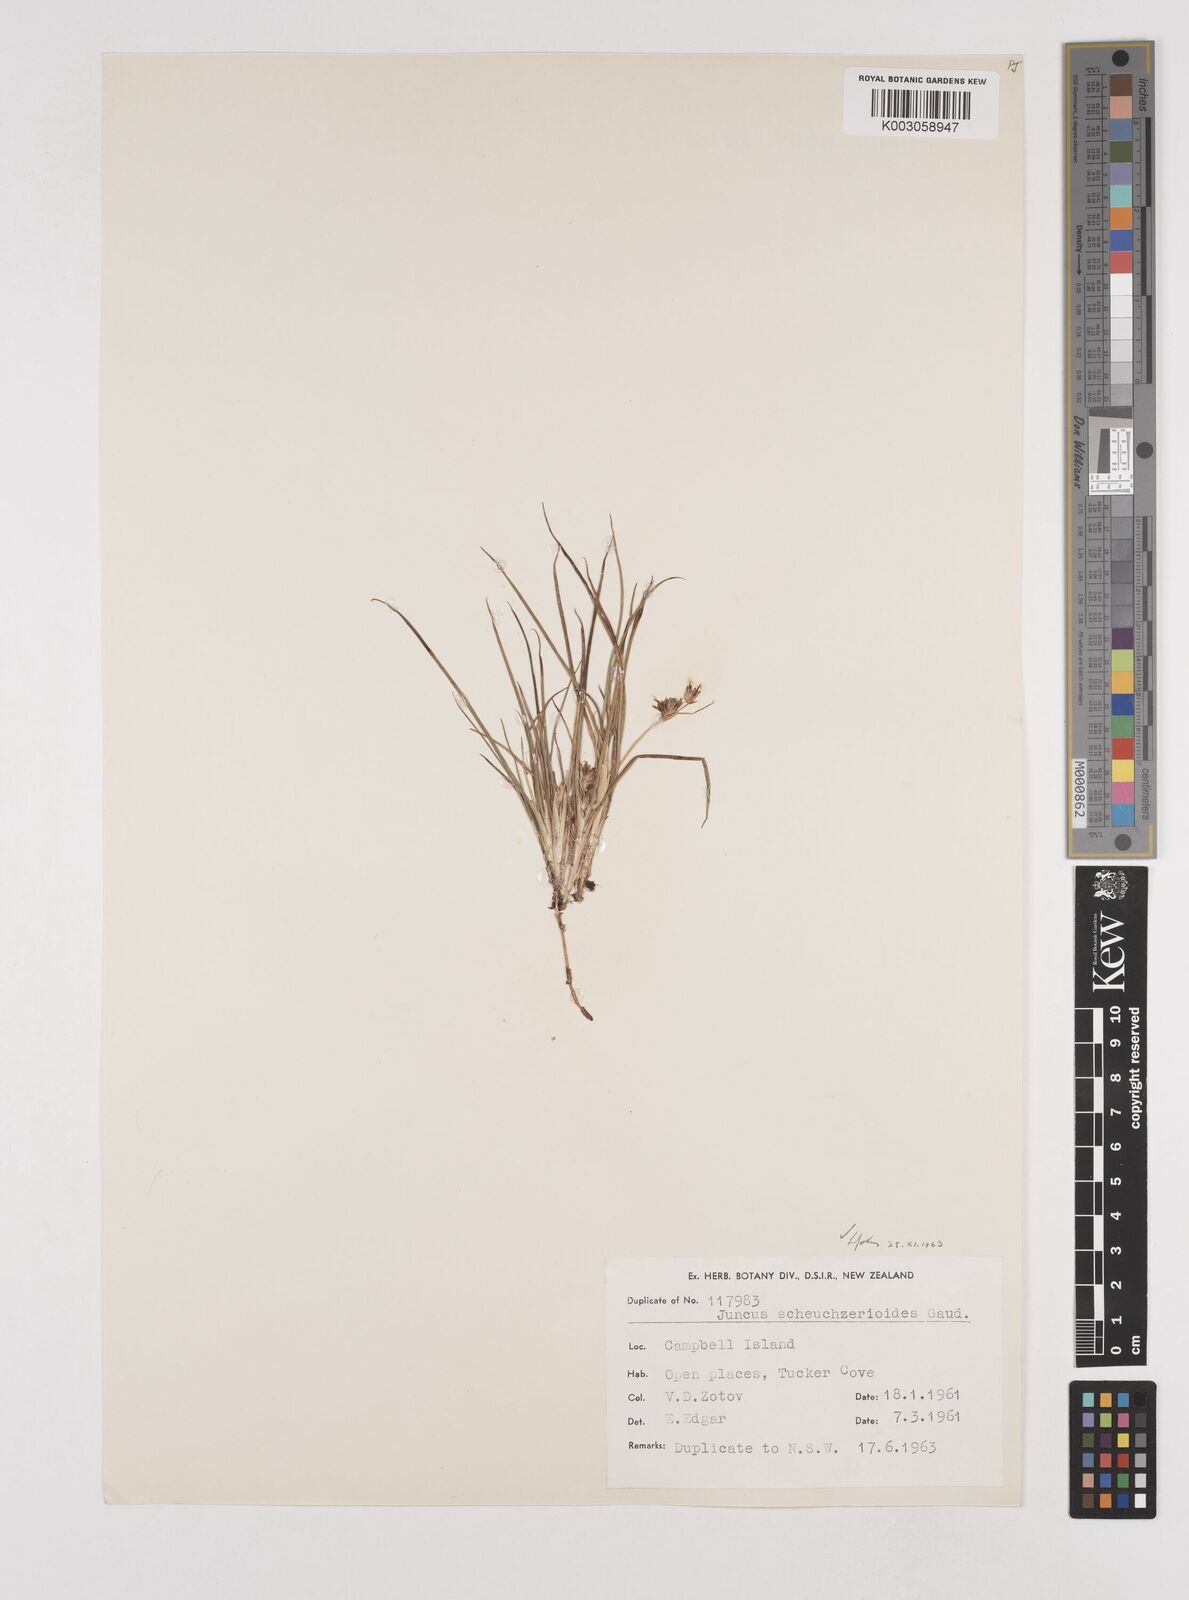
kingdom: Plantae
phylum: Tracheophyta
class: Liliopsida
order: Poales
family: Juncaceae
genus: Juncus
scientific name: Juncus scheuchzerioides
